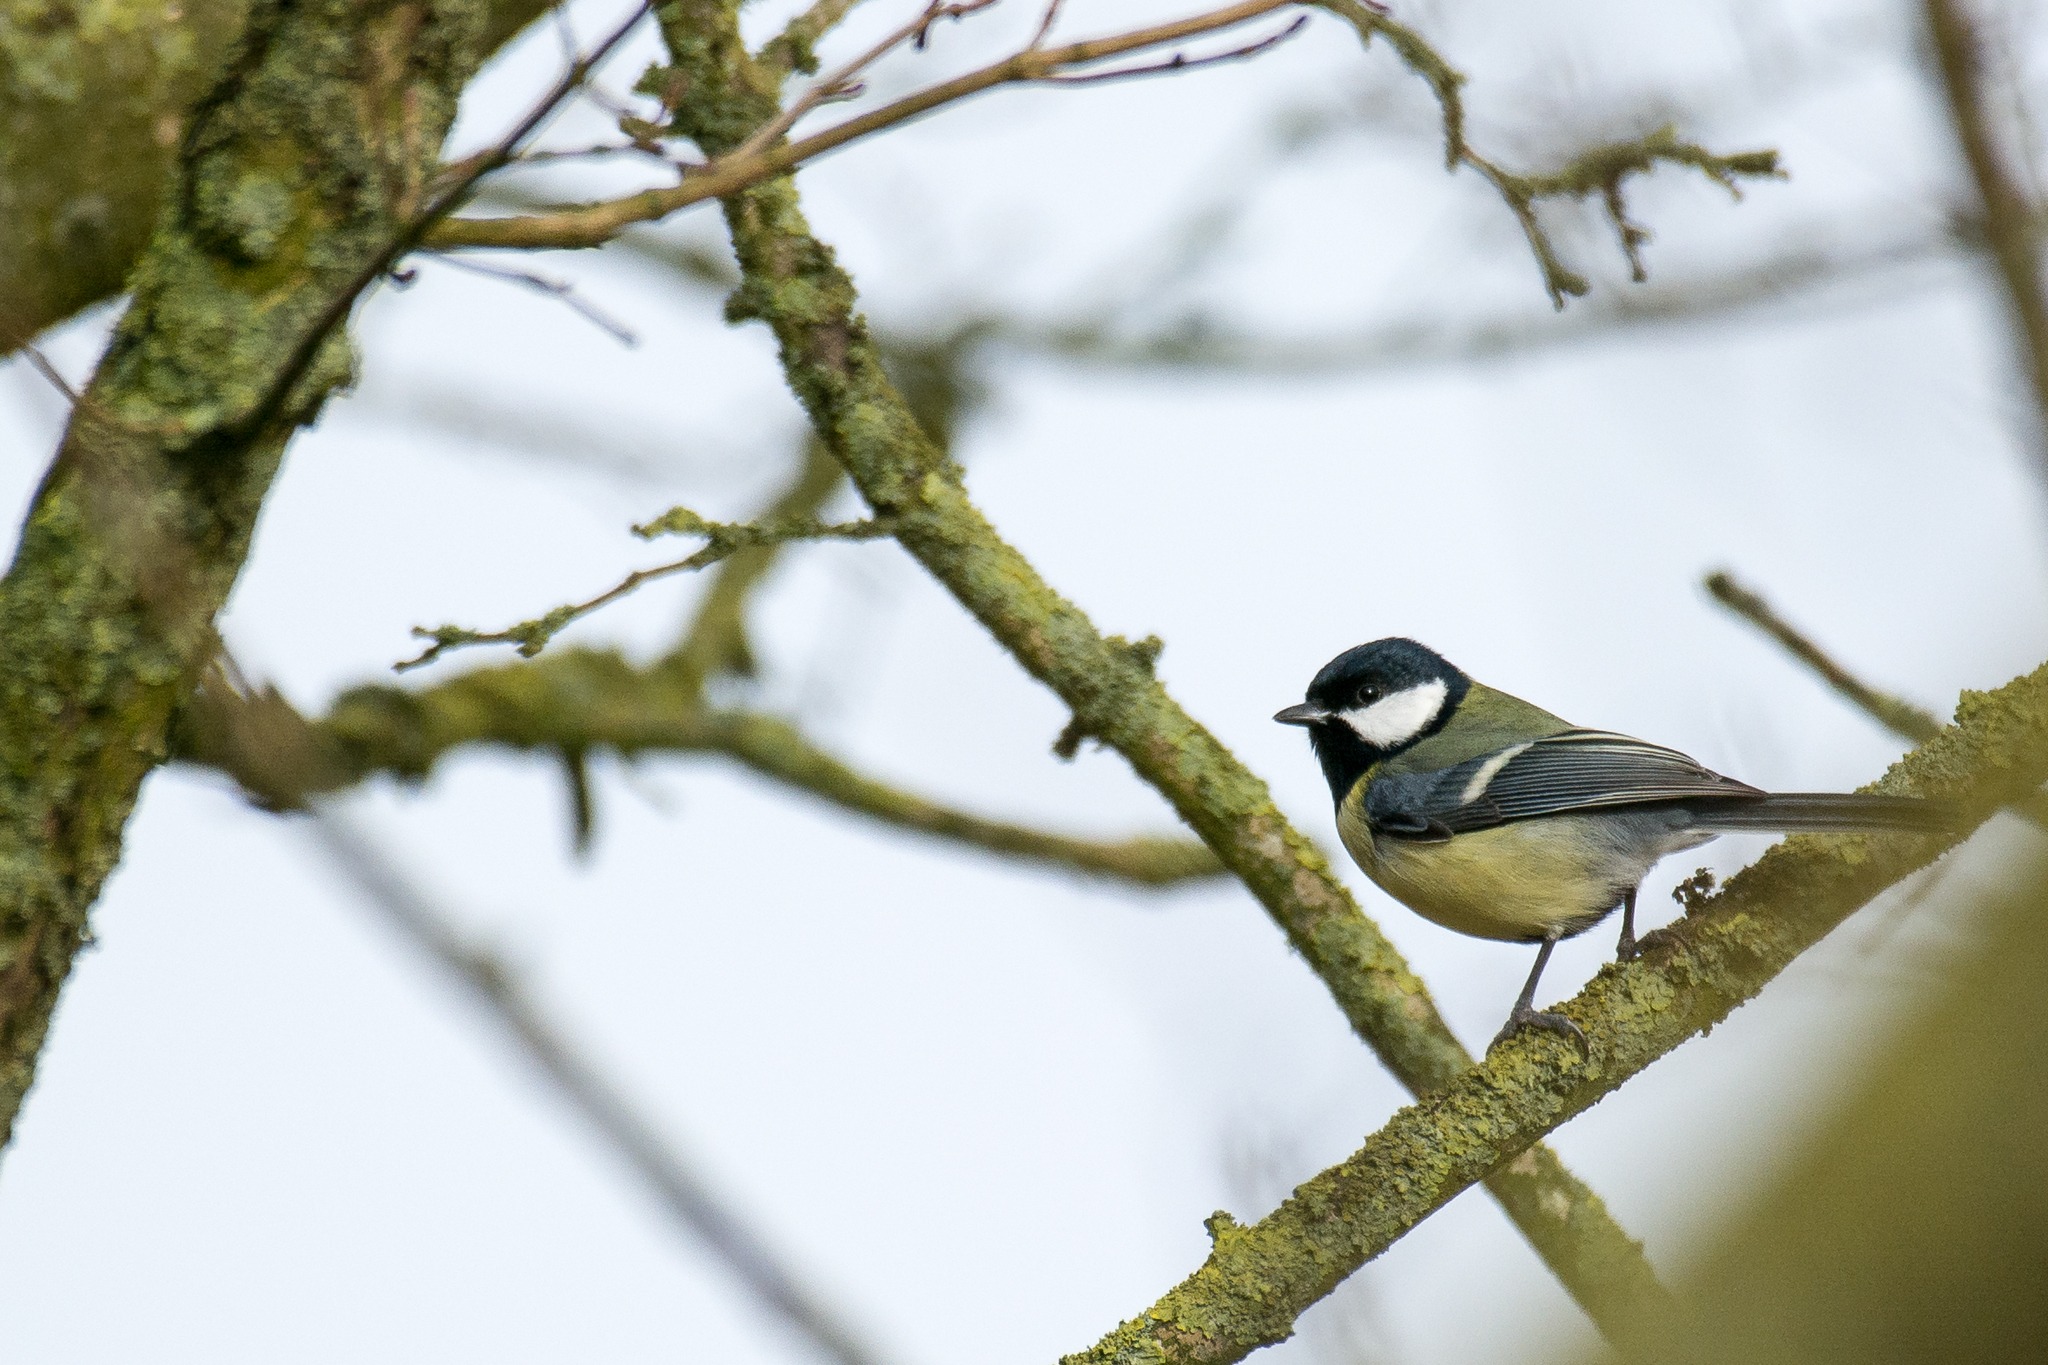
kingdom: Animalia
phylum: Chordata
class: Aves
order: Passeriformes
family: Paridae
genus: Parus
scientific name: Parus major
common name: Musvit
